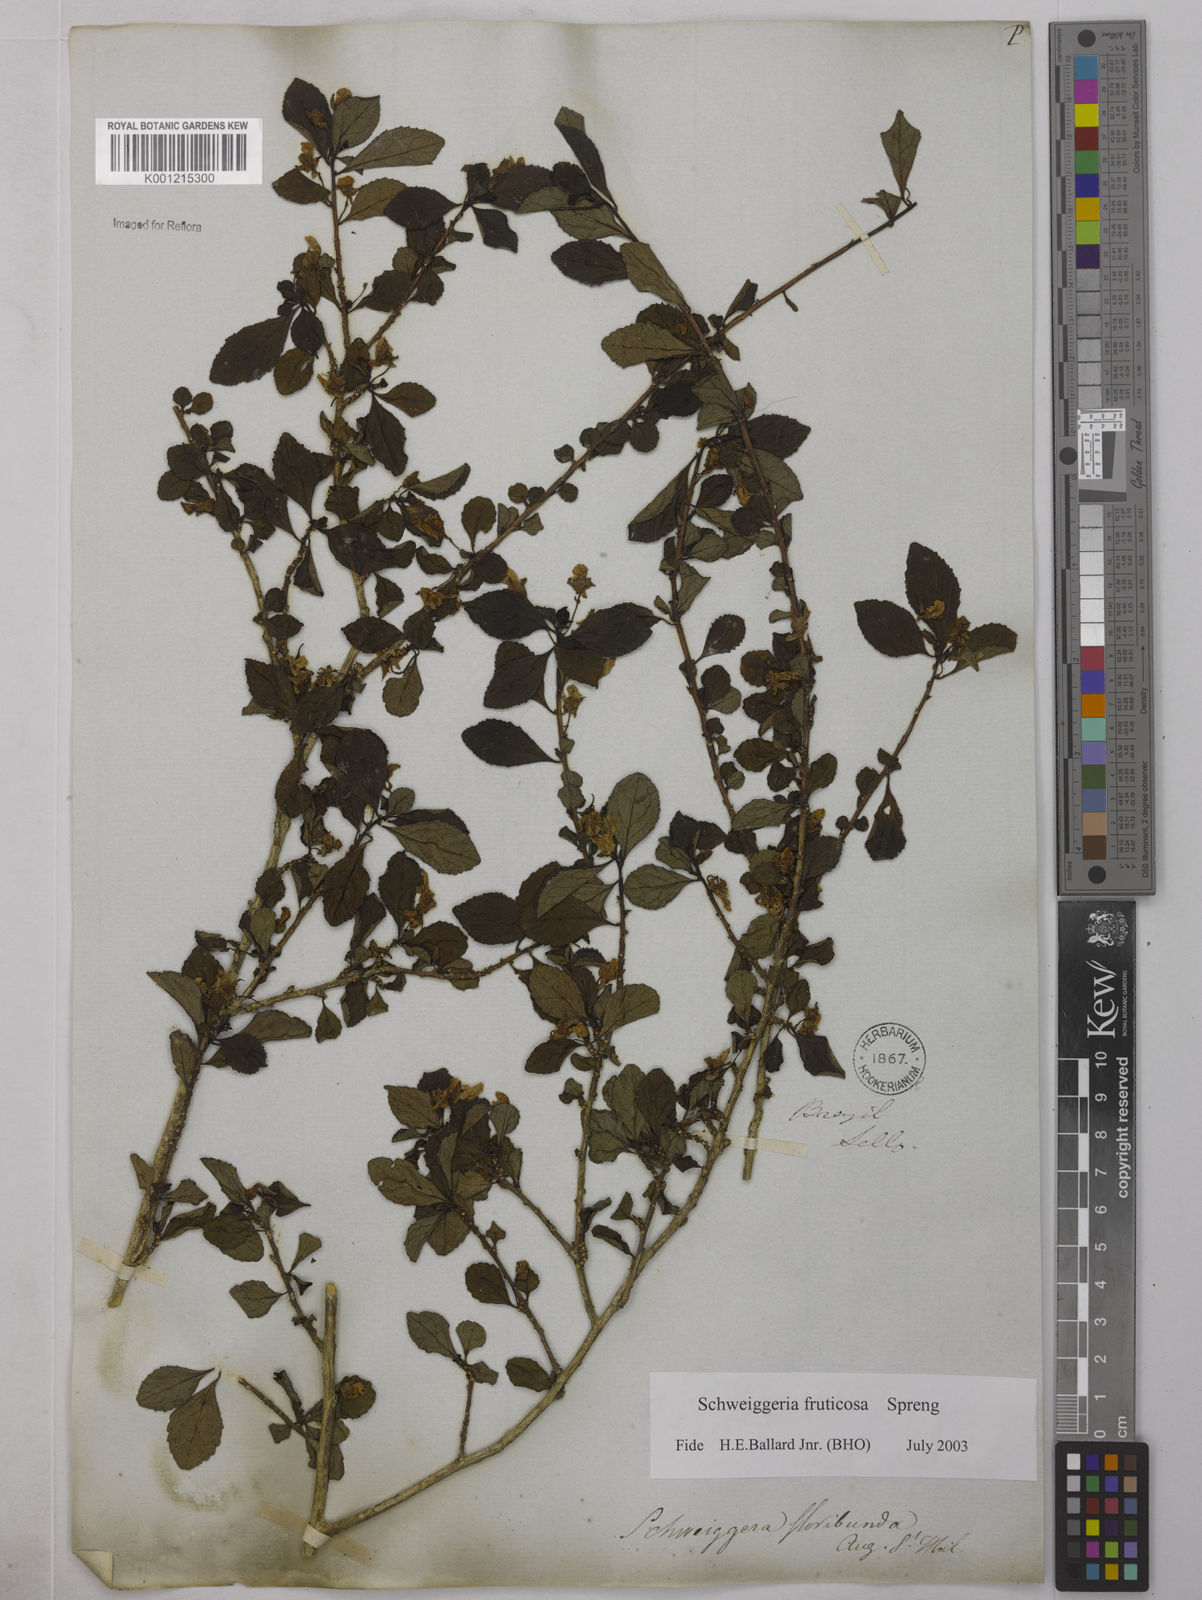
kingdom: Plantae
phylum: Tracheophyta
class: Magnoliopsida
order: Malpighiales
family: Violaceae
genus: Schweiggeria
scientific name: Schweiggeria fruticosa
